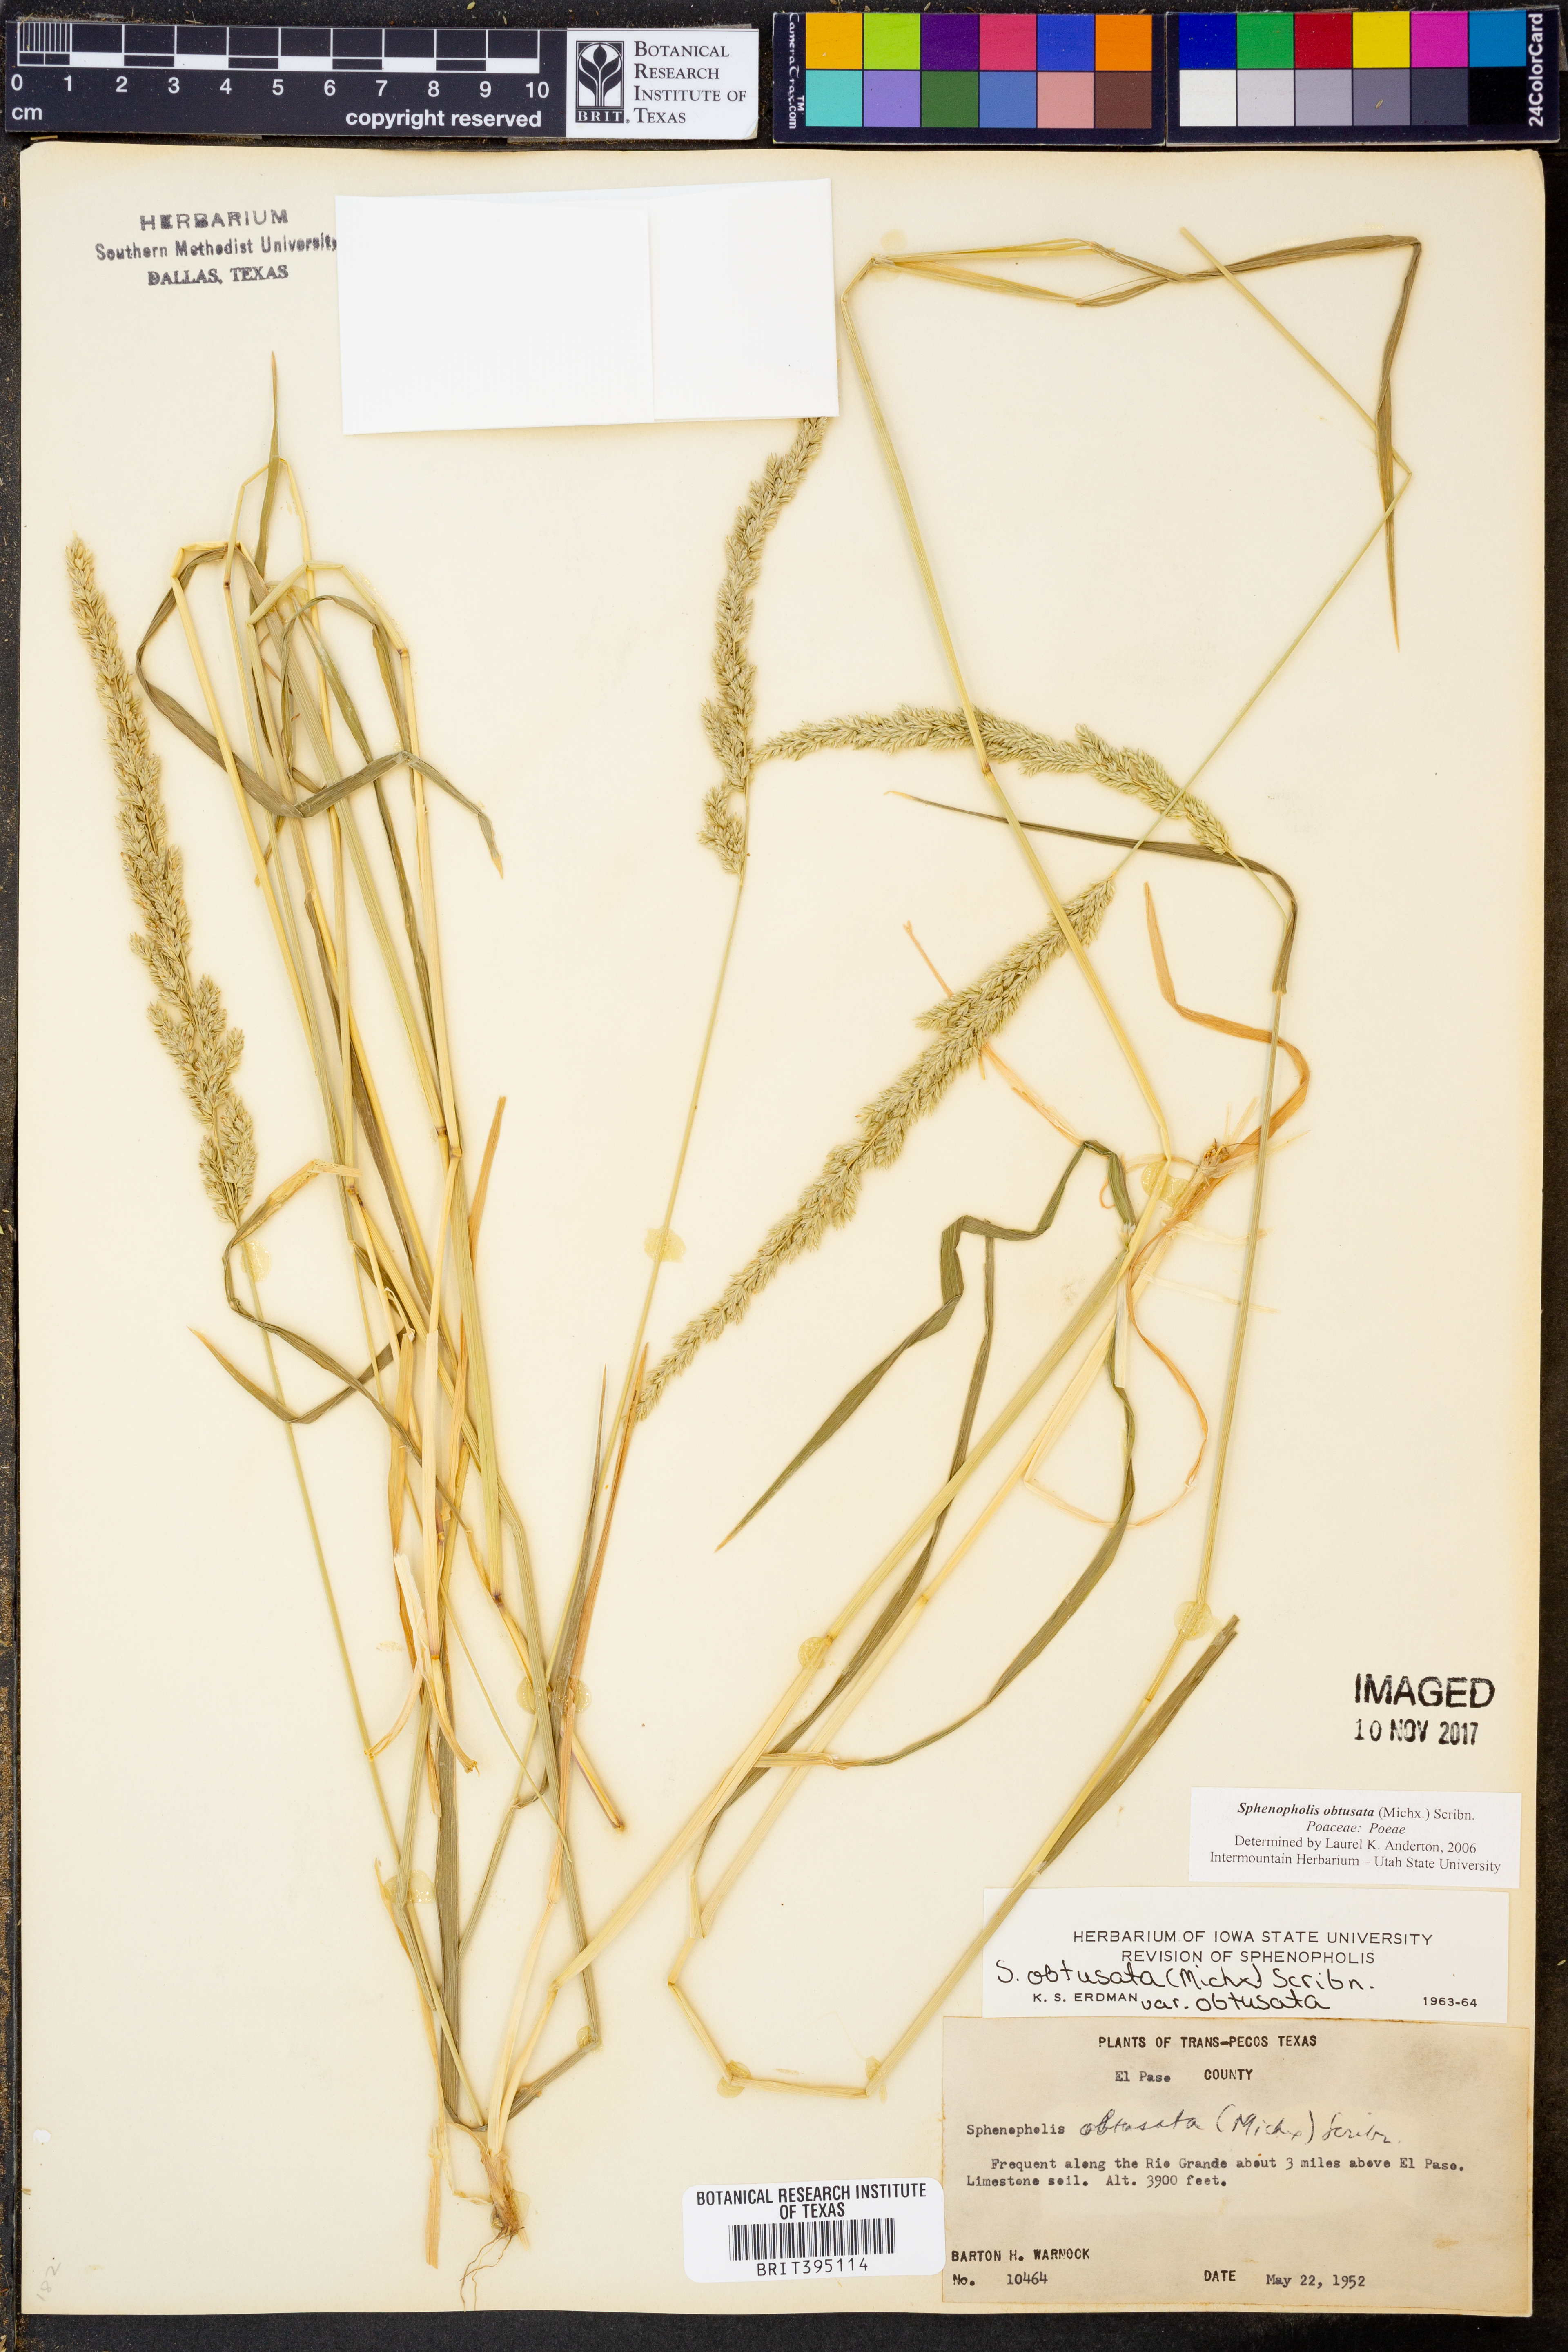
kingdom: Plantae
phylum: Tracheophyta
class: Liliopsida
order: Poales
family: Poaceae
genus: Sphenopholis
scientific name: Sphenopholis obtusata
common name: Prairie grass
